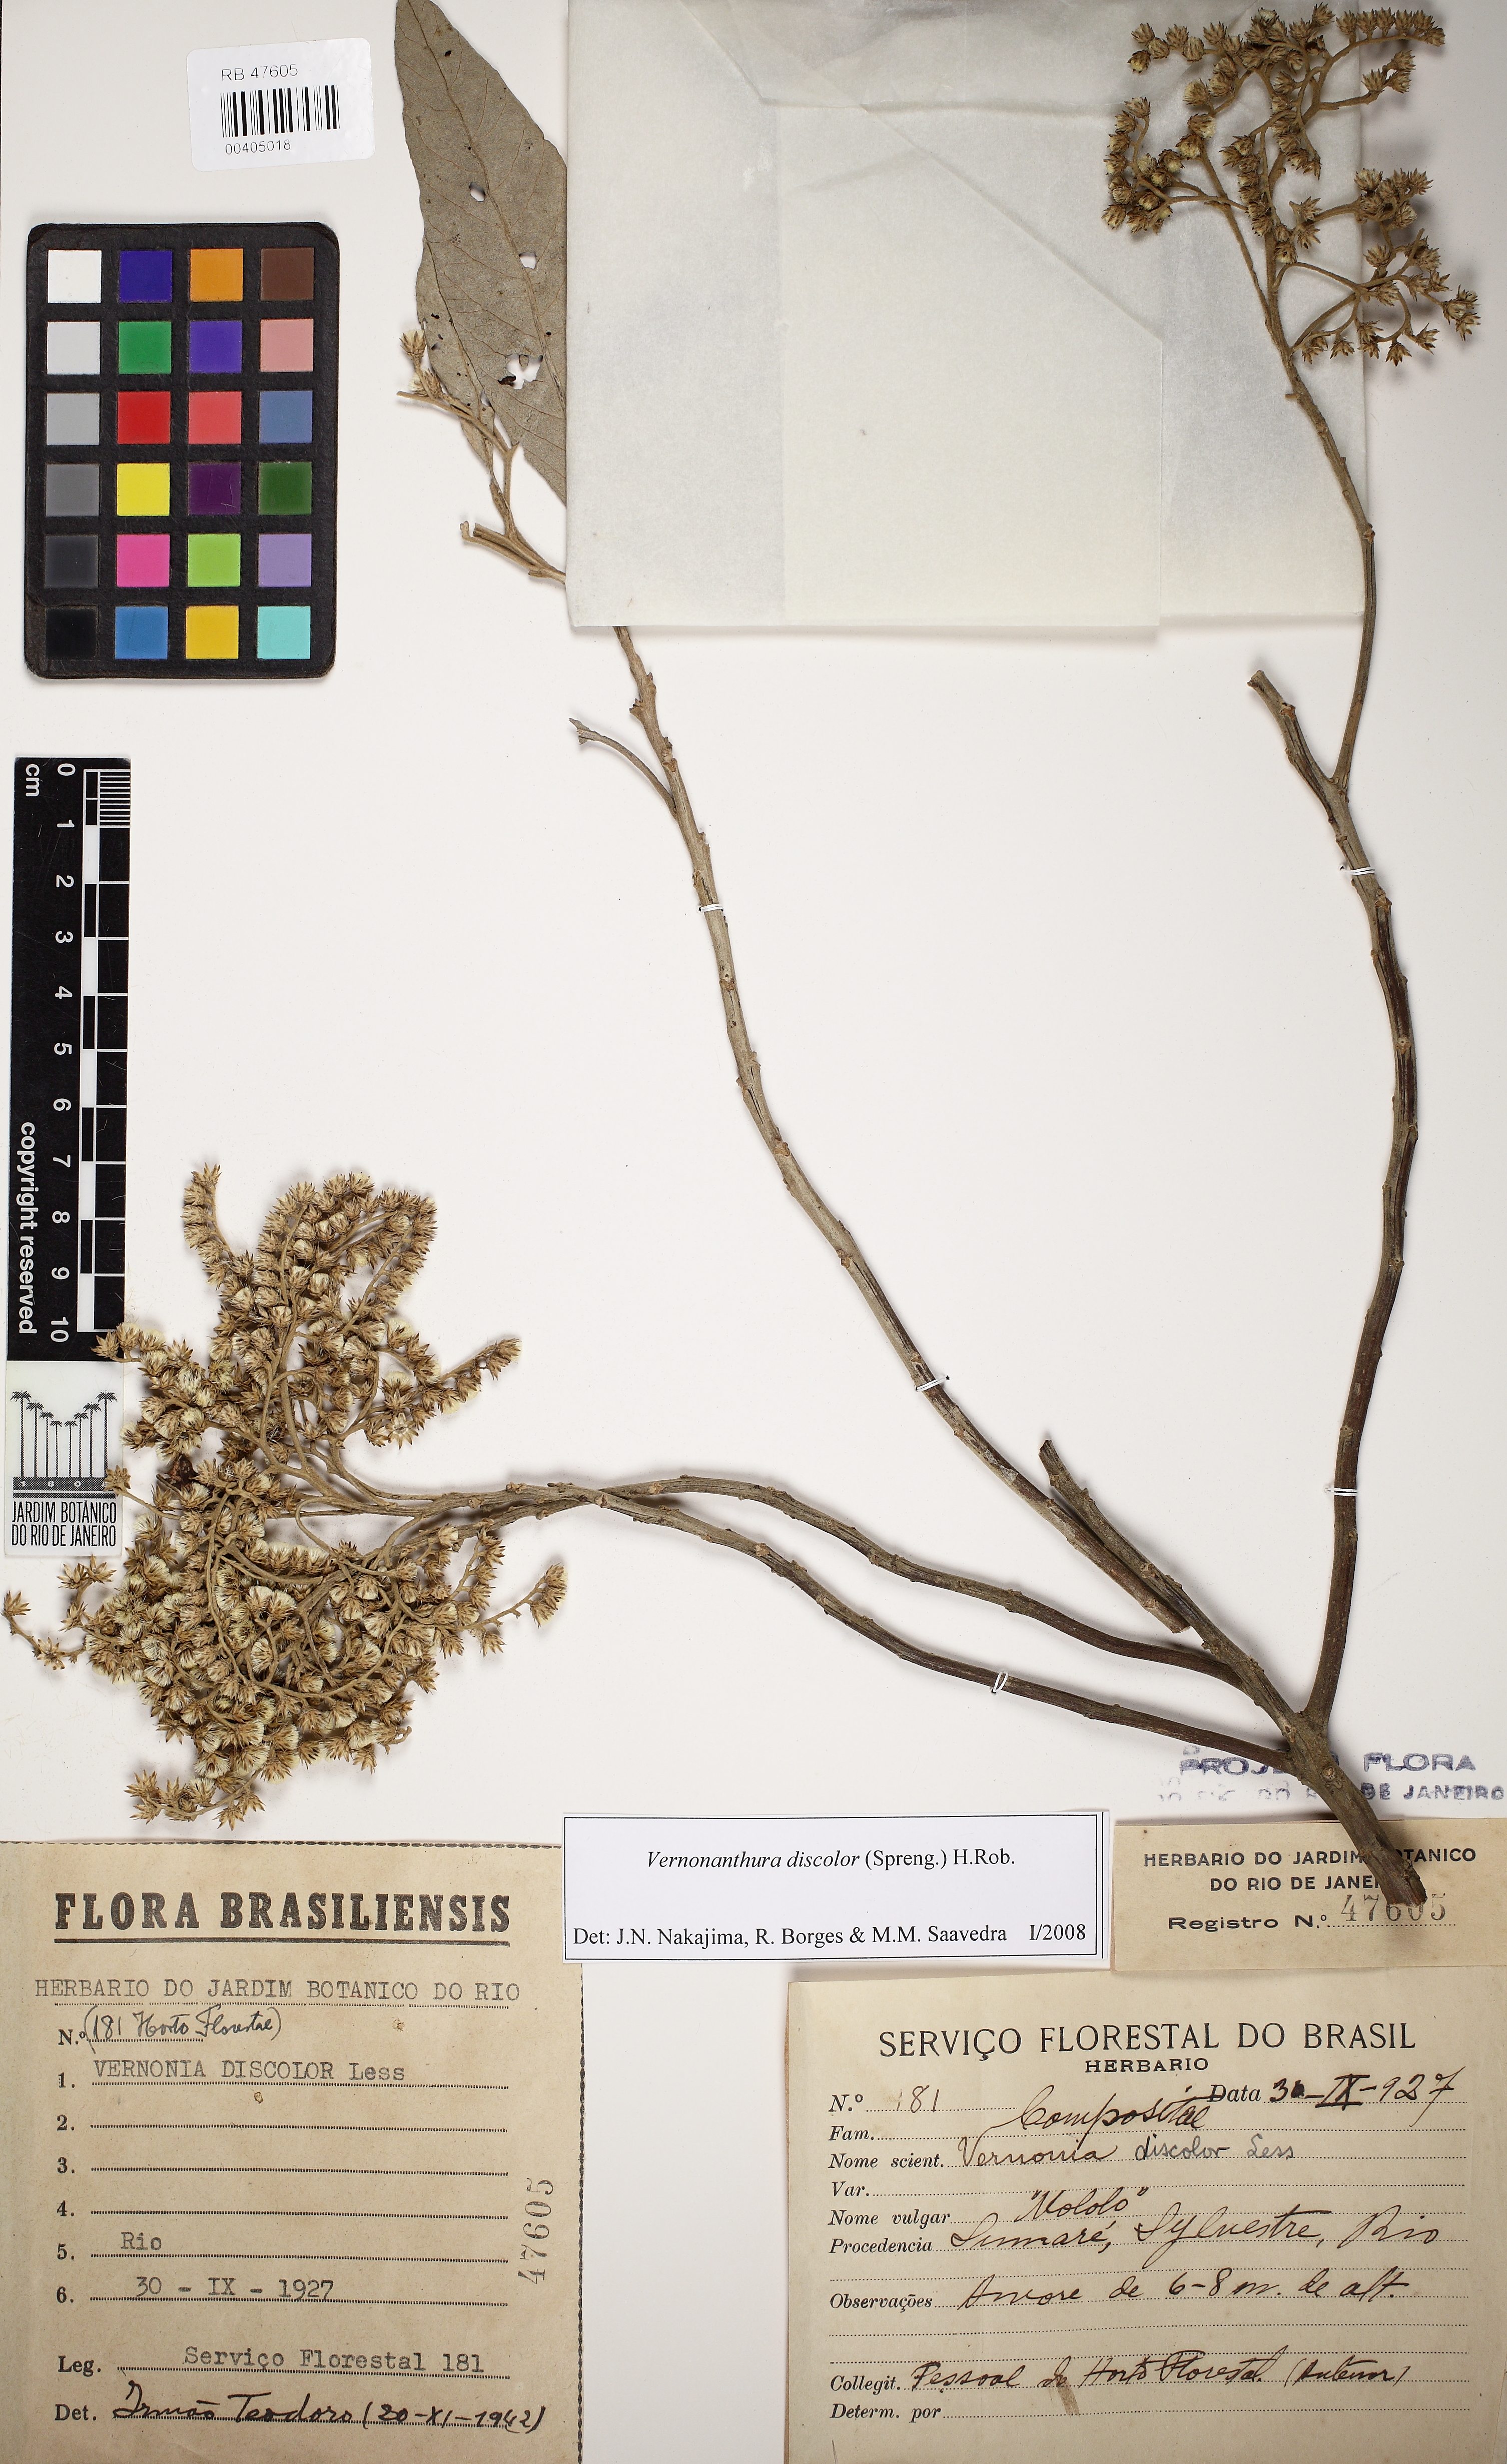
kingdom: Plantae
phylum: Tracheophyta
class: Magnoliopsida
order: Asterales
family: Asteraceae
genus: Vernonanthura
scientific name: Vernonanthura discolor
